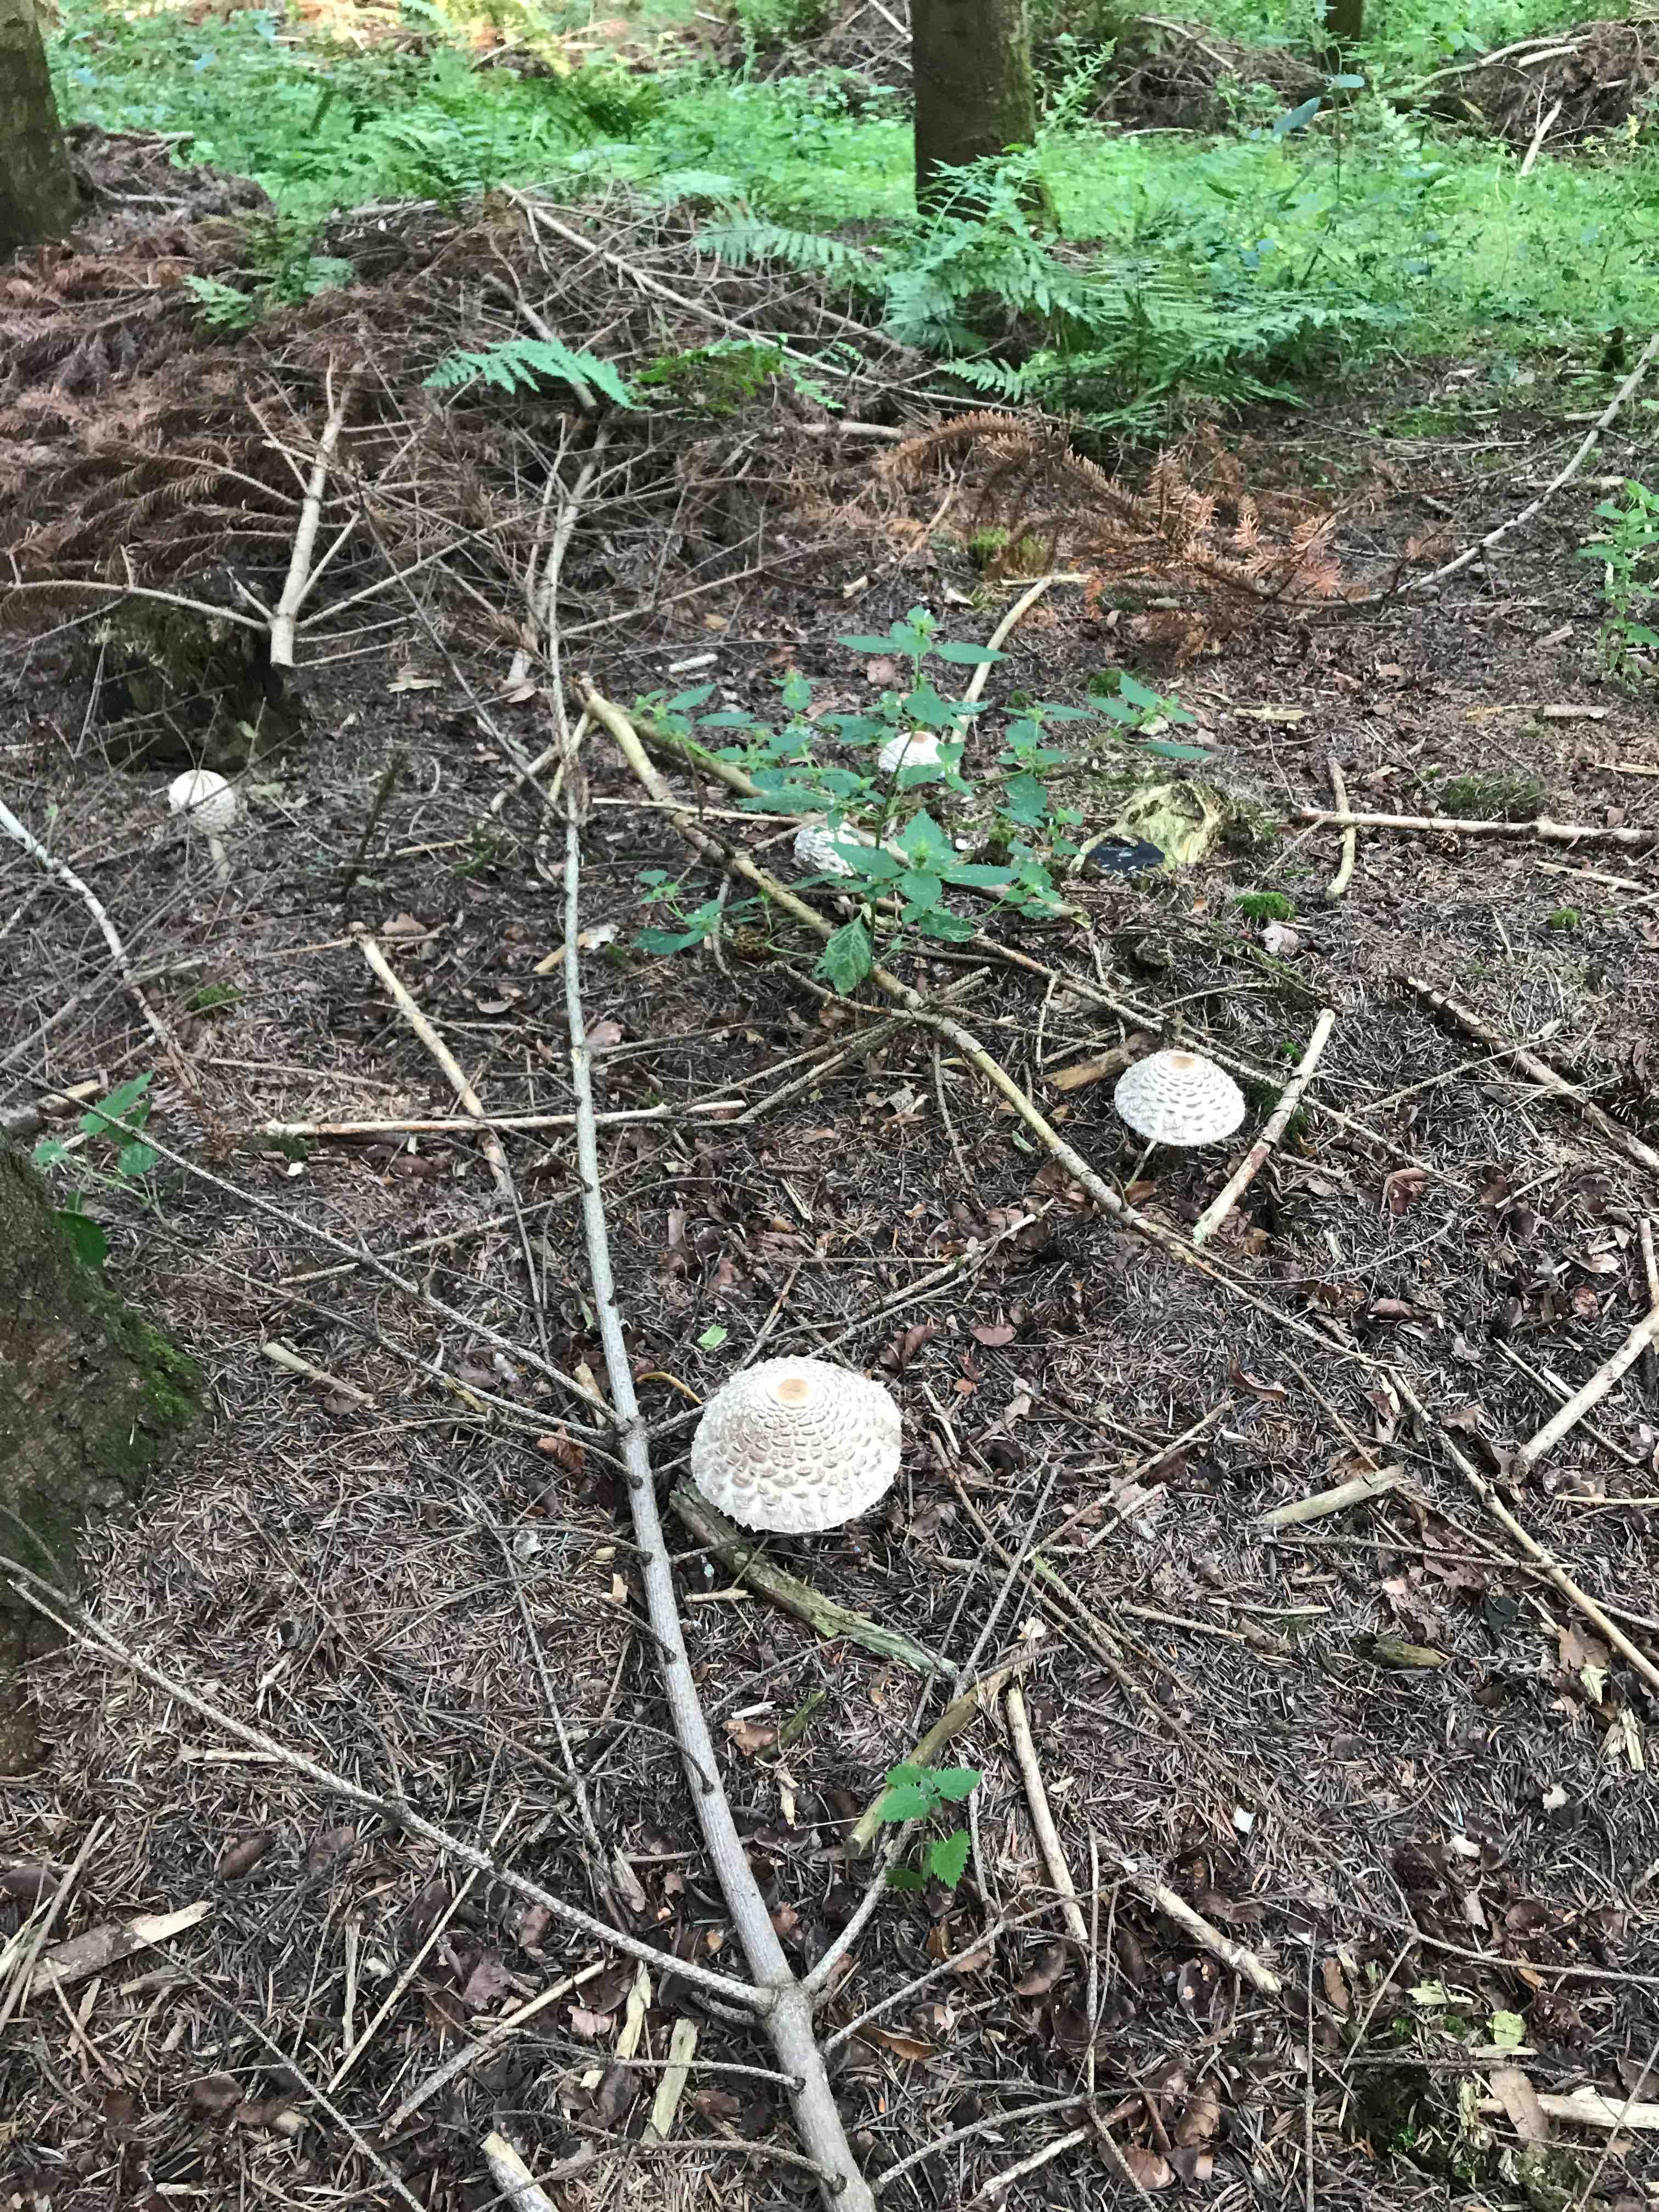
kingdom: Fungi
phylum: Basidiomycota
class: Agaricomycetes
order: Agaricales
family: Agaricaceae
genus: Chlorophyllum
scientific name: Chlorophyllum olivieri
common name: almindelig rabarberhat
